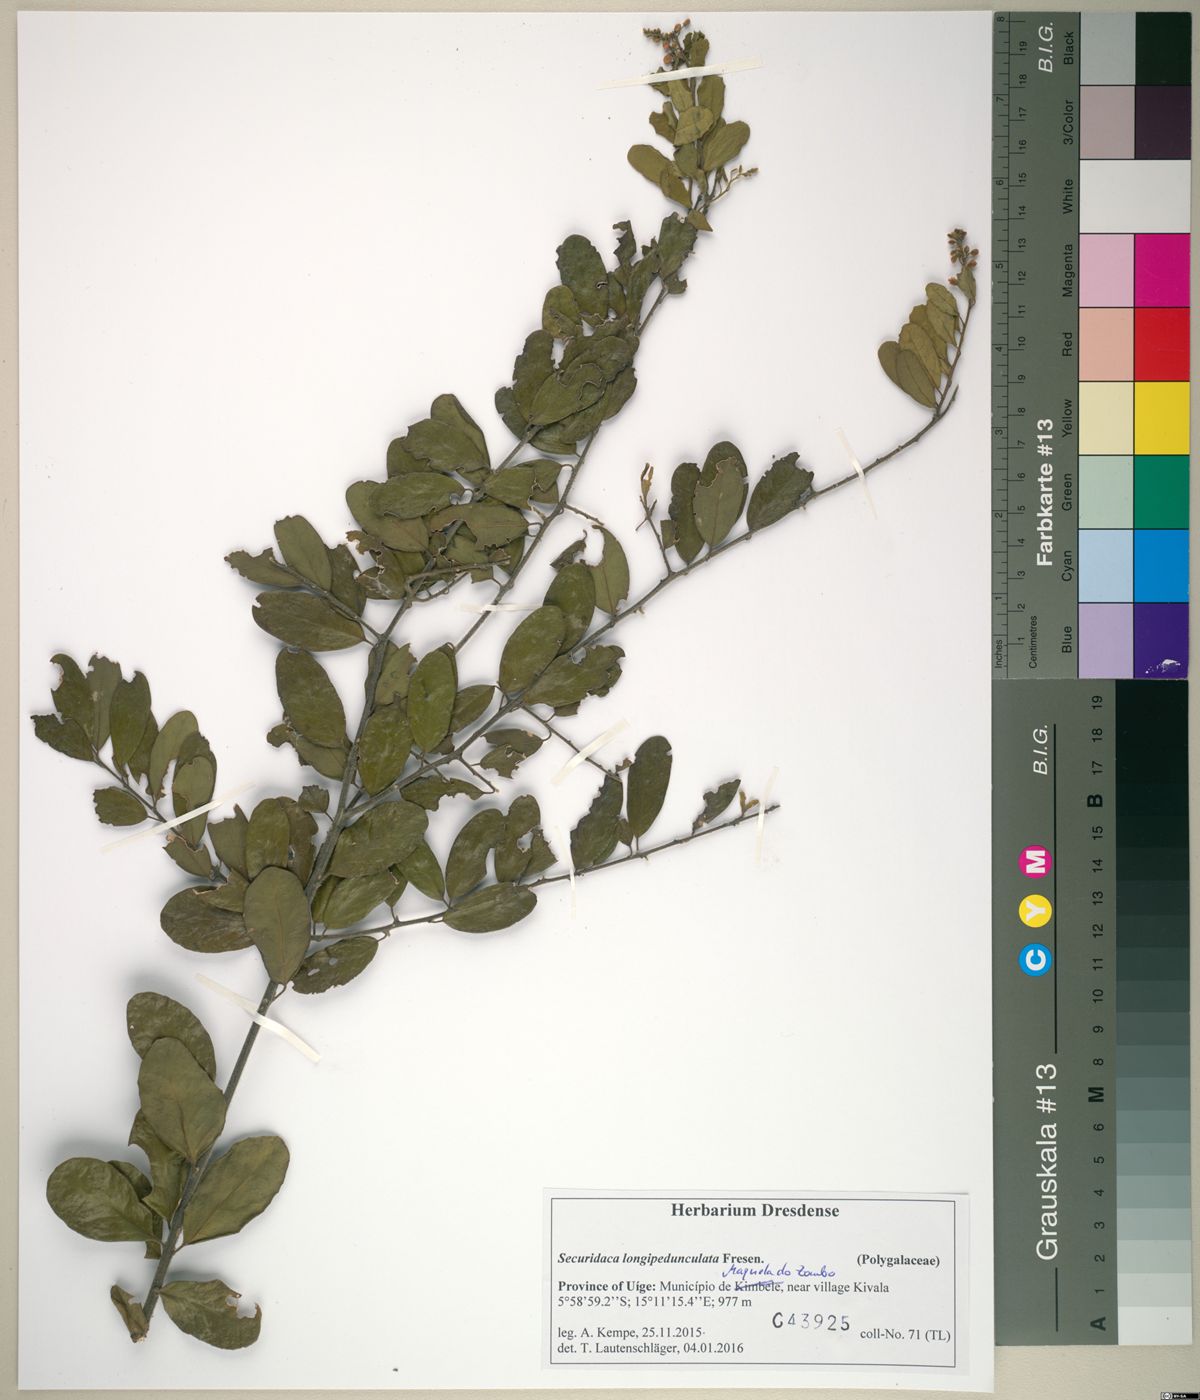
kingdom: Plantae
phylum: Tracheophyta
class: Magnoliopsida
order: Fabales
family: Polygalaceae
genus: Securidaca
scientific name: Securidaca longepedunculata
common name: Violet tree
